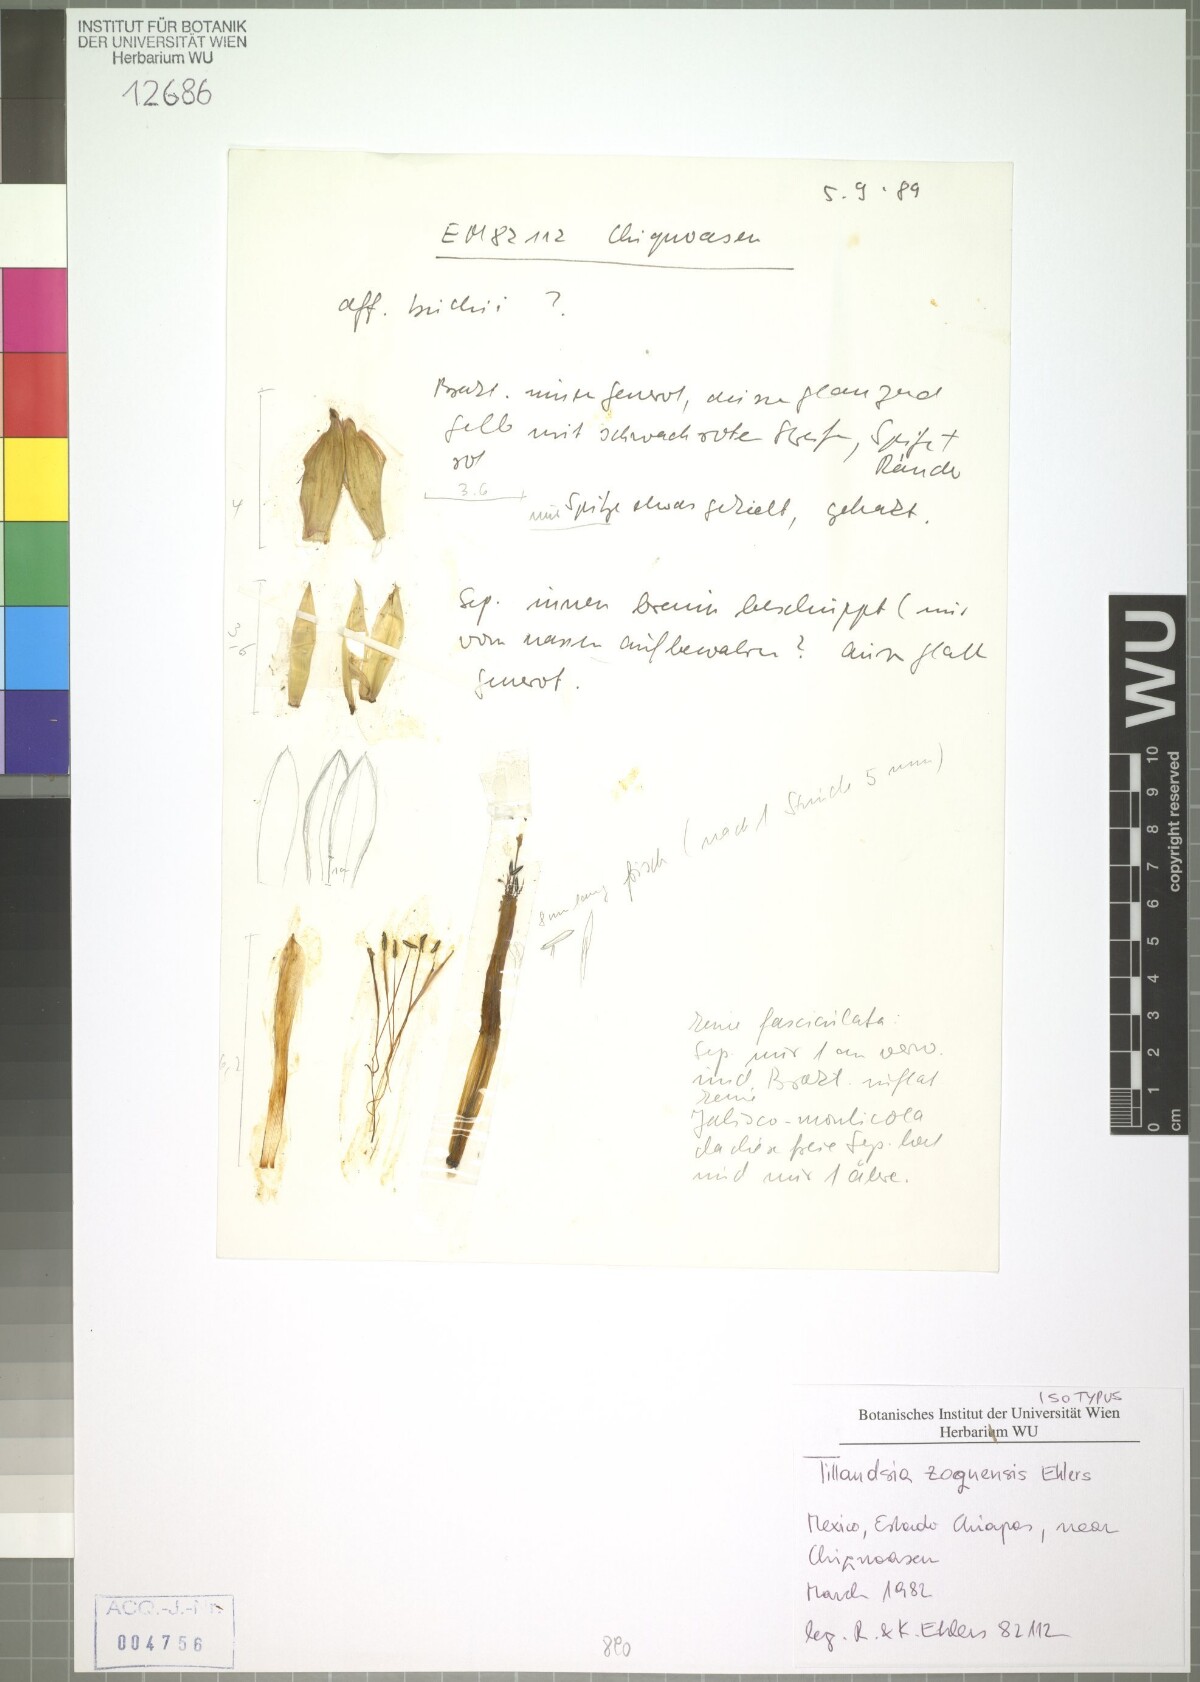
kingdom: Plantae
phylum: Tracheophyta
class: Liliopsida
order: Poales
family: Bromeliaceae
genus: Tillandsia
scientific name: Tillandsia zoquensis
